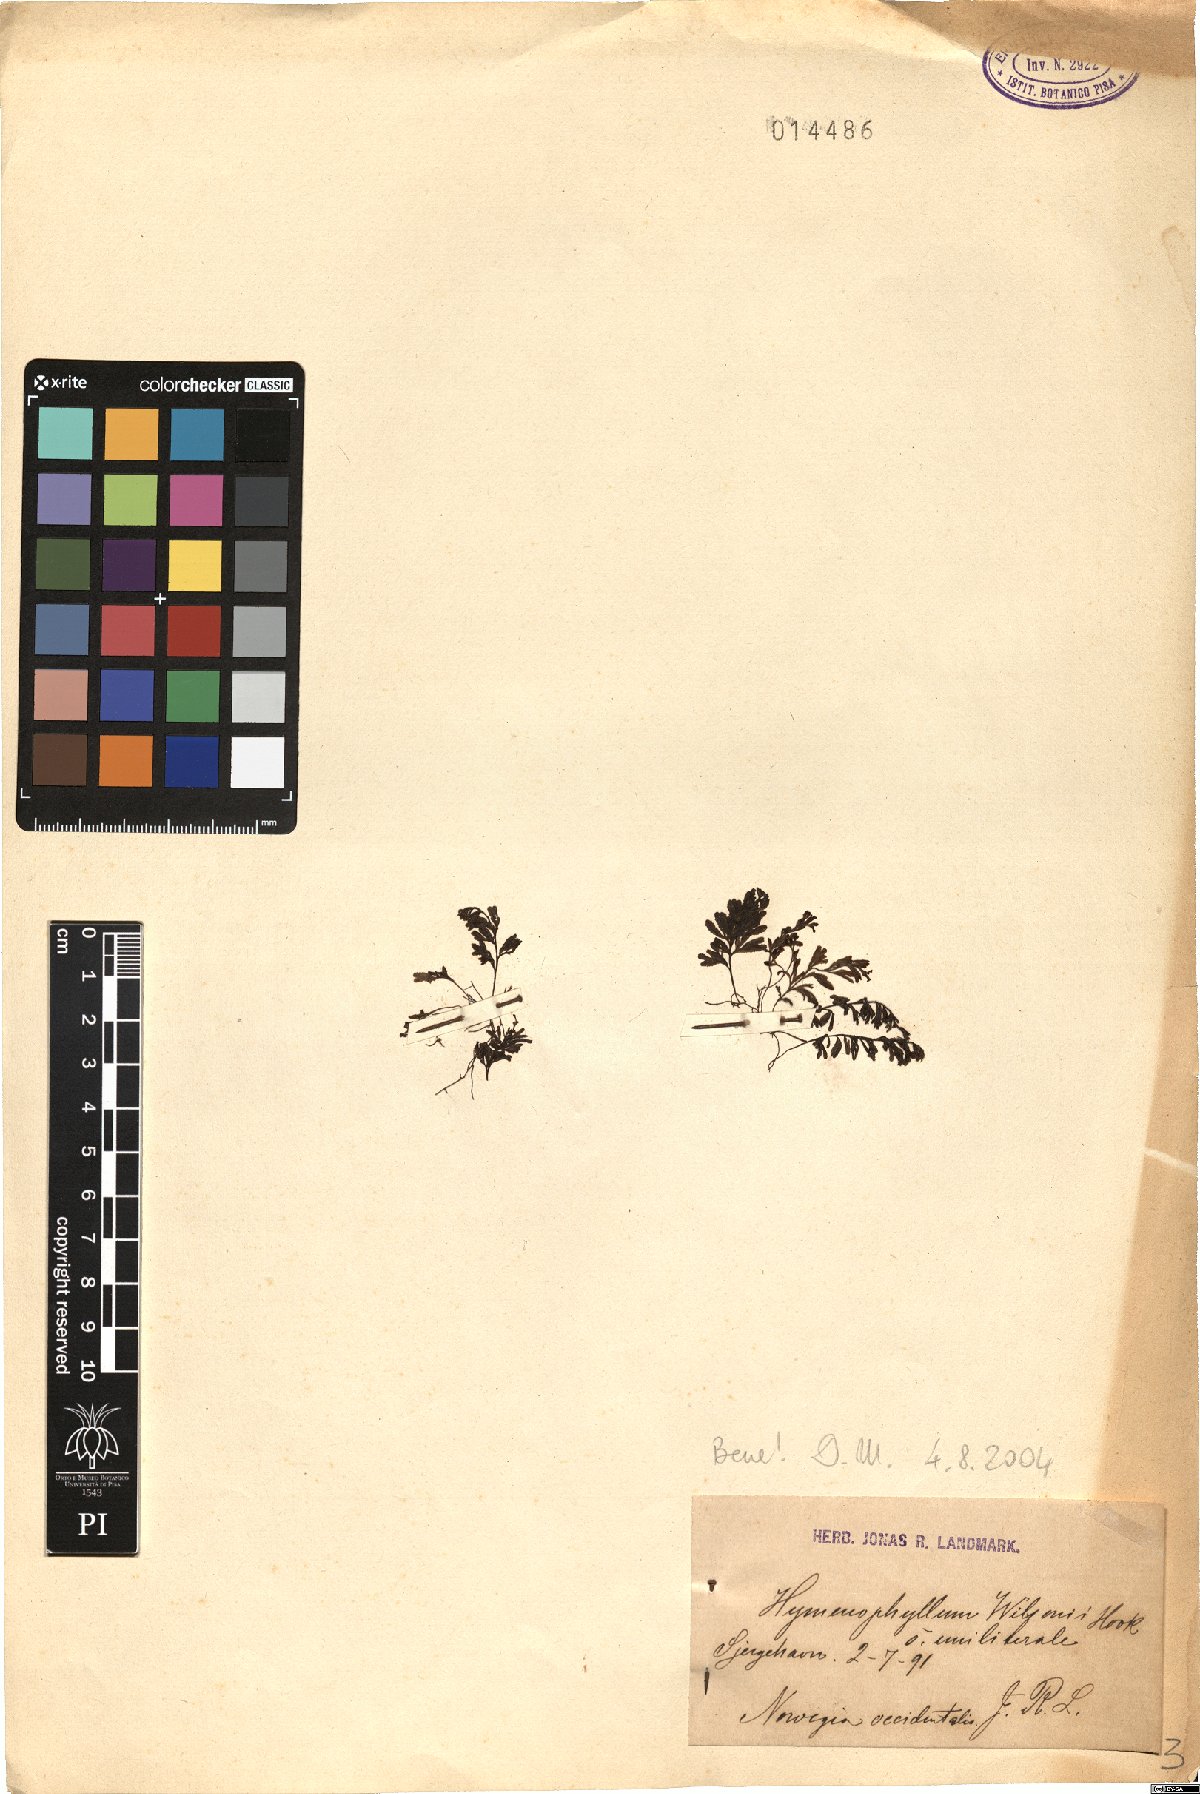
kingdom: Plantae
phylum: Tracheophyta
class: Polypodiopsida
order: Hymenophyllales
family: Hymenophyllaceae
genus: Hymenophyllum
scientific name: Hymenophyllum wilsonii
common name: Wilson's filmy fern
